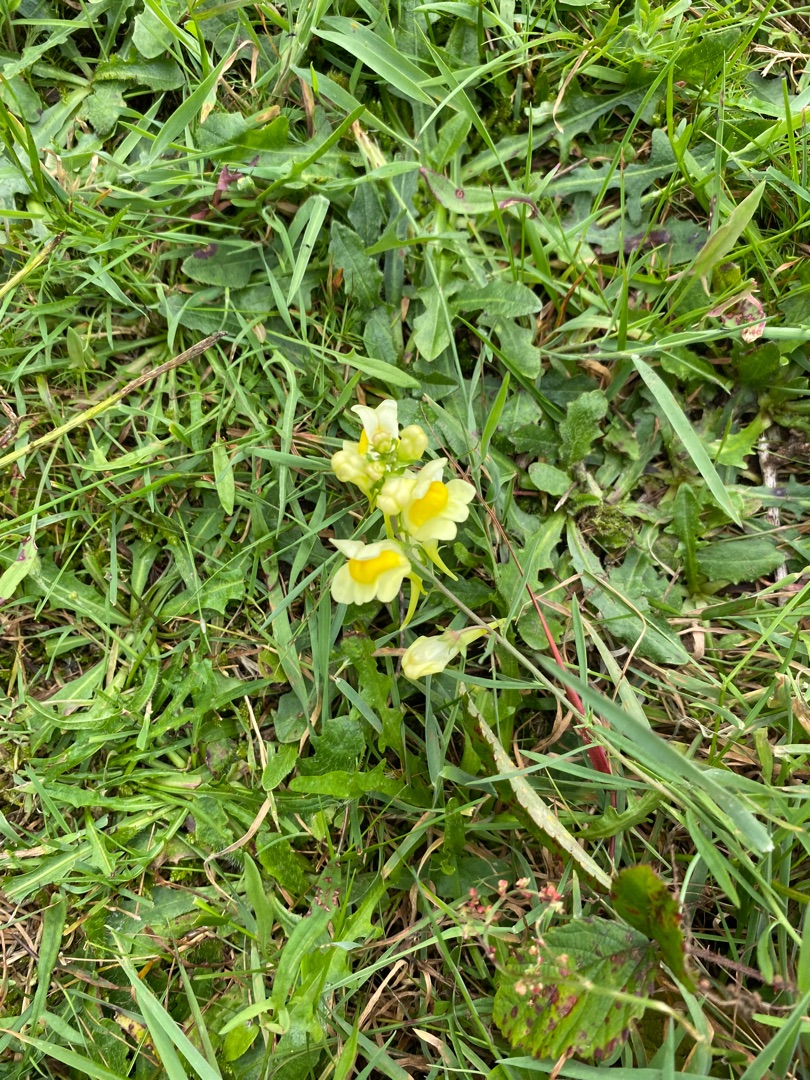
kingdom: Plantae
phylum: Tracheophyta
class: Magnoliopsida
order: Lamiales
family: Plantaginaceae
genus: Linaria
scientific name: Linaria vulgaris
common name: Almindelig torskemund
